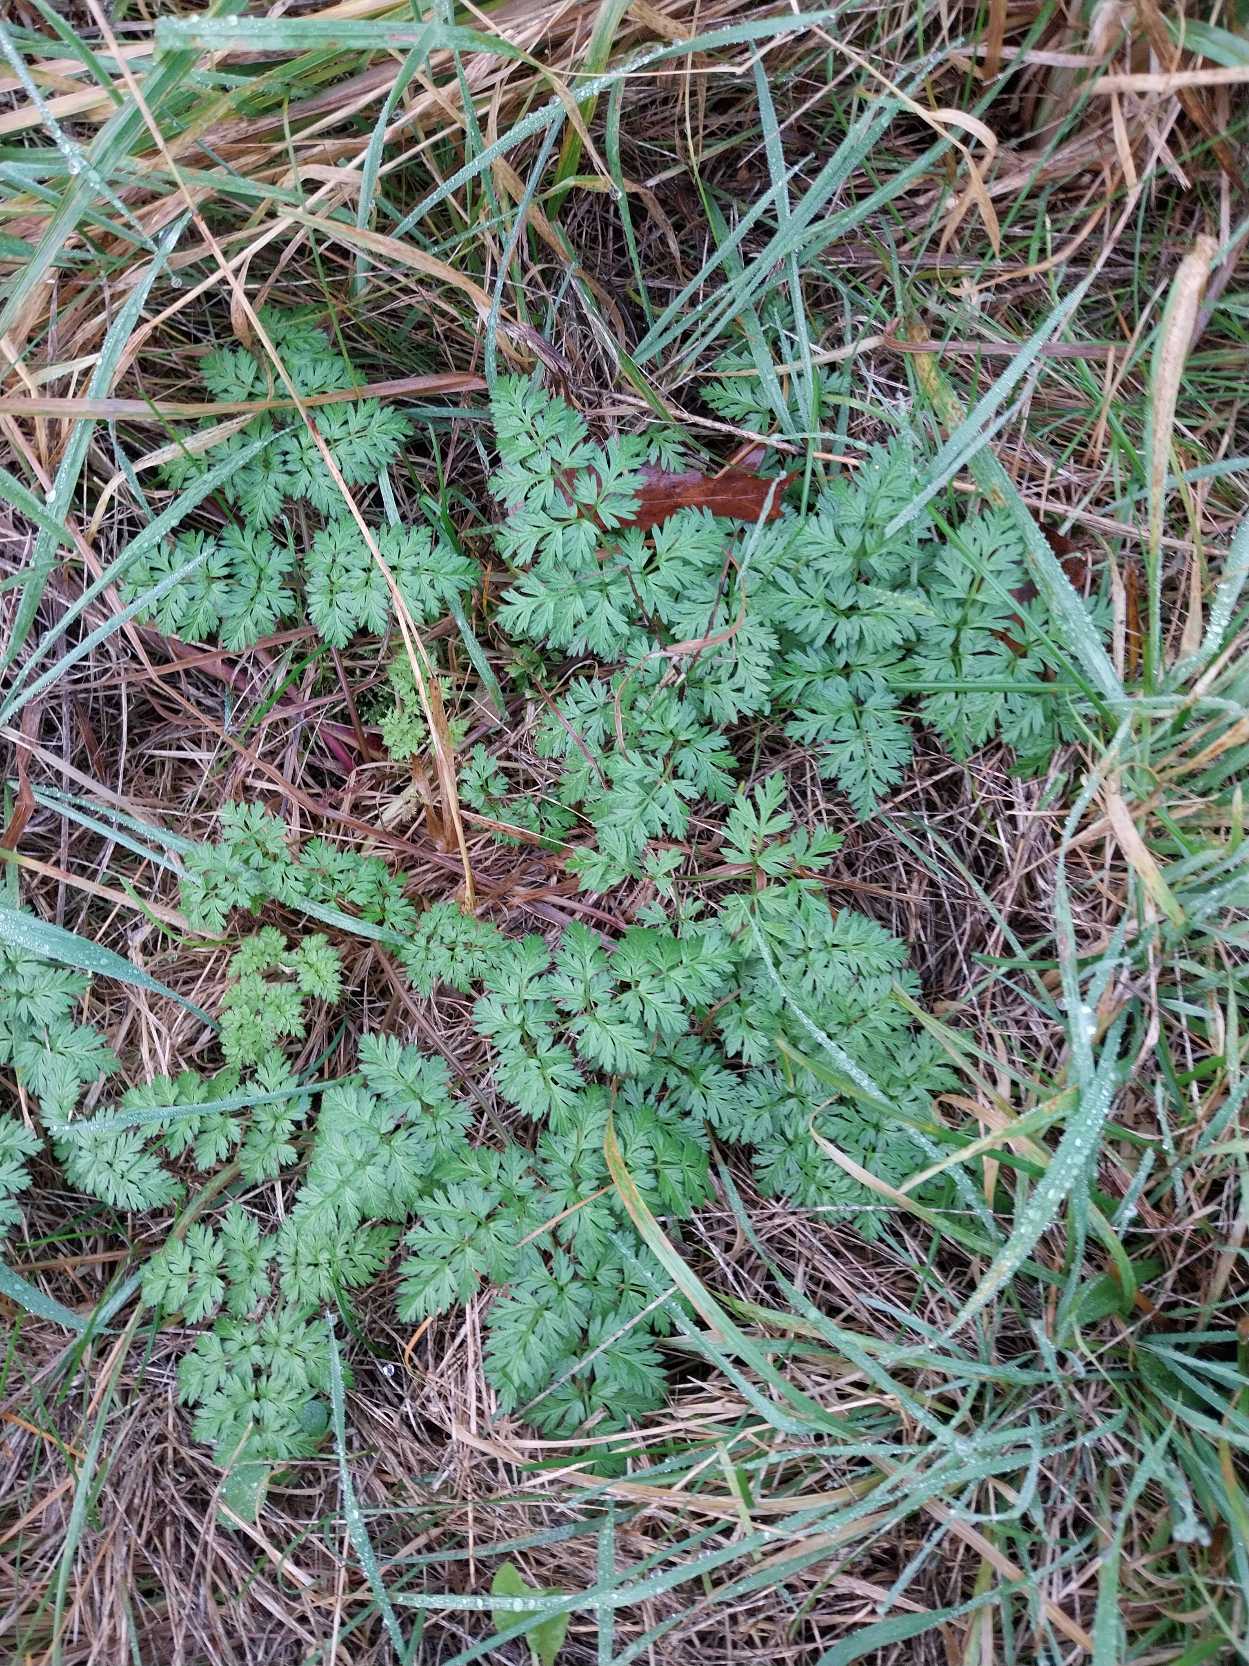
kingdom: Plantae
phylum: Tracheophyta
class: Magnoliopsida
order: Apiales
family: Apiaceae
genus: Anthriscus
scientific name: Anthriscus sylvestris
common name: Vild kørvel
